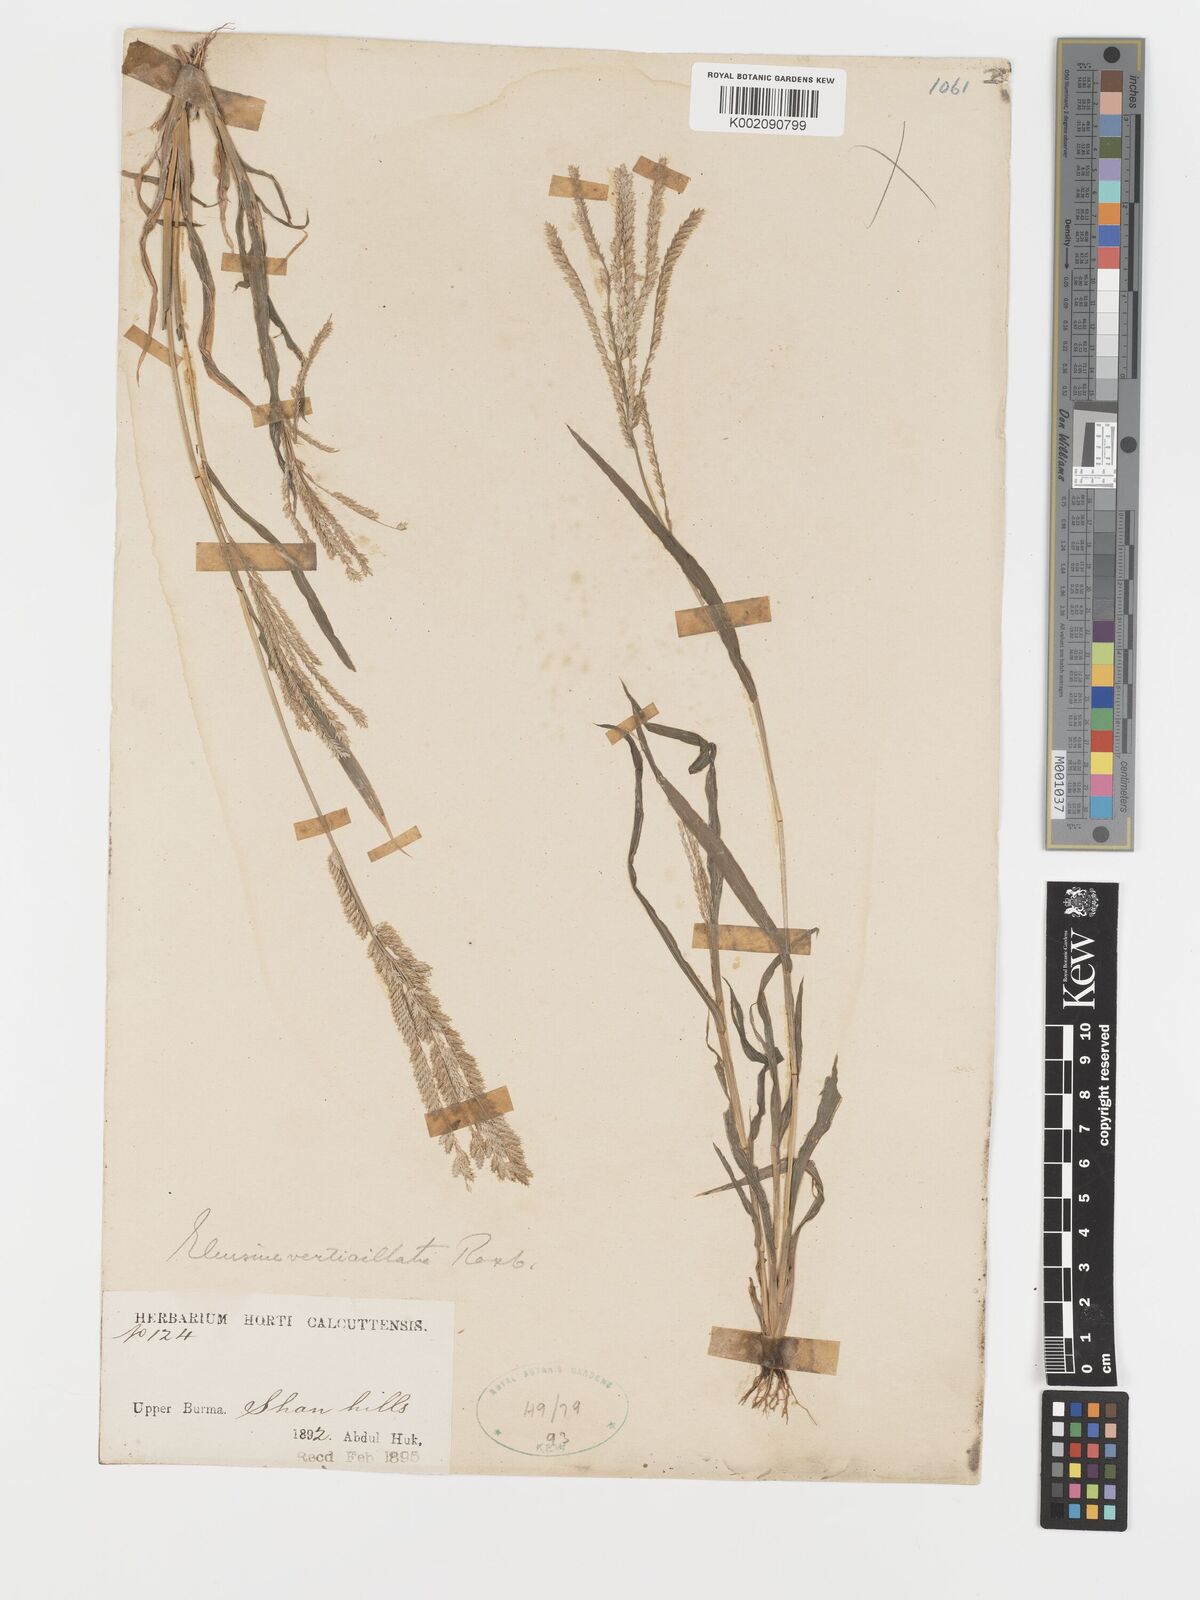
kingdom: Plantae
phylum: Tracheophyta
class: Liliopsida
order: Poales
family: Poaceae
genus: Acrachne
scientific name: Acrachne racemosa
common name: Goosegrass
